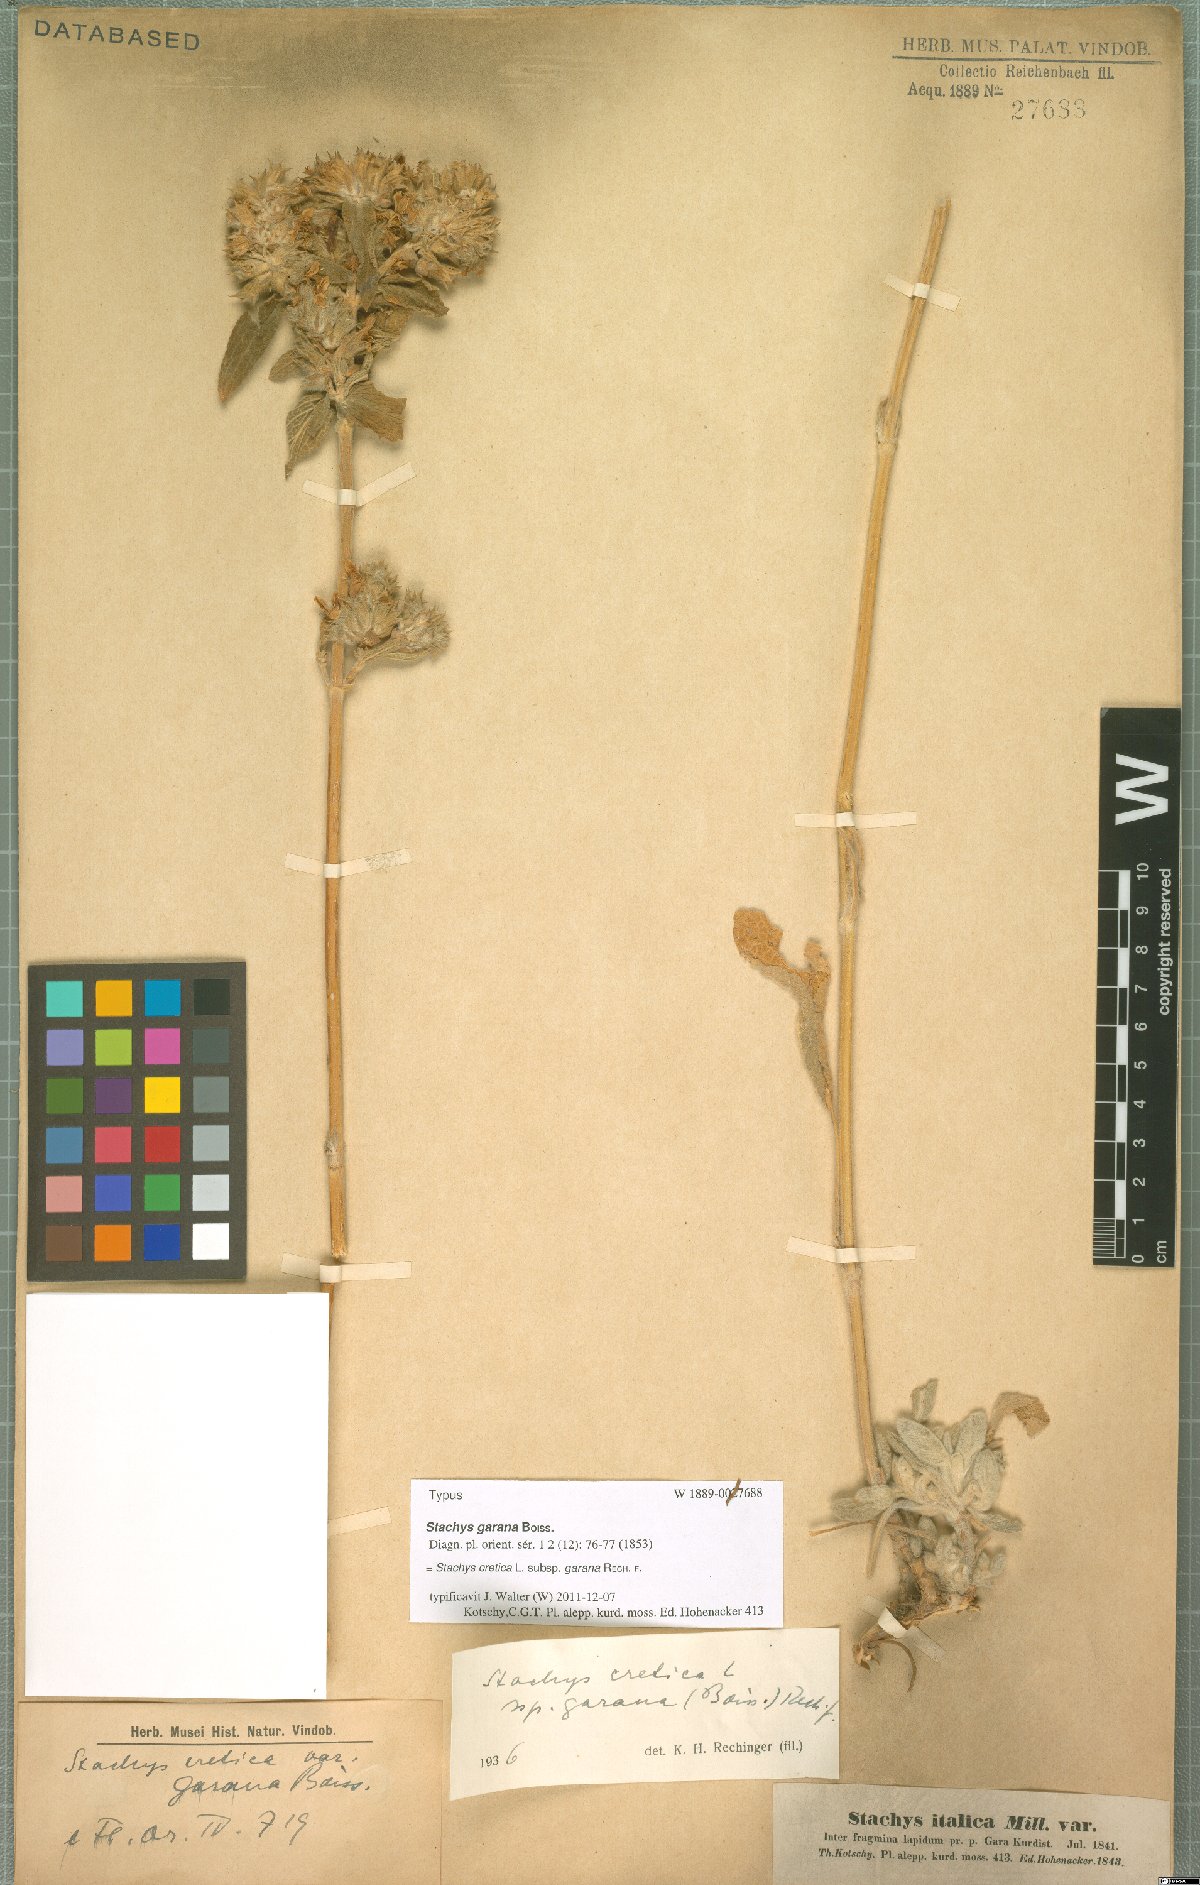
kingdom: Plantae
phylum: Tracheophyta
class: Magnoliopsida
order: Lamiales
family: Lamiaceae
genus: Stachys
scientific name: Stachys cretica
